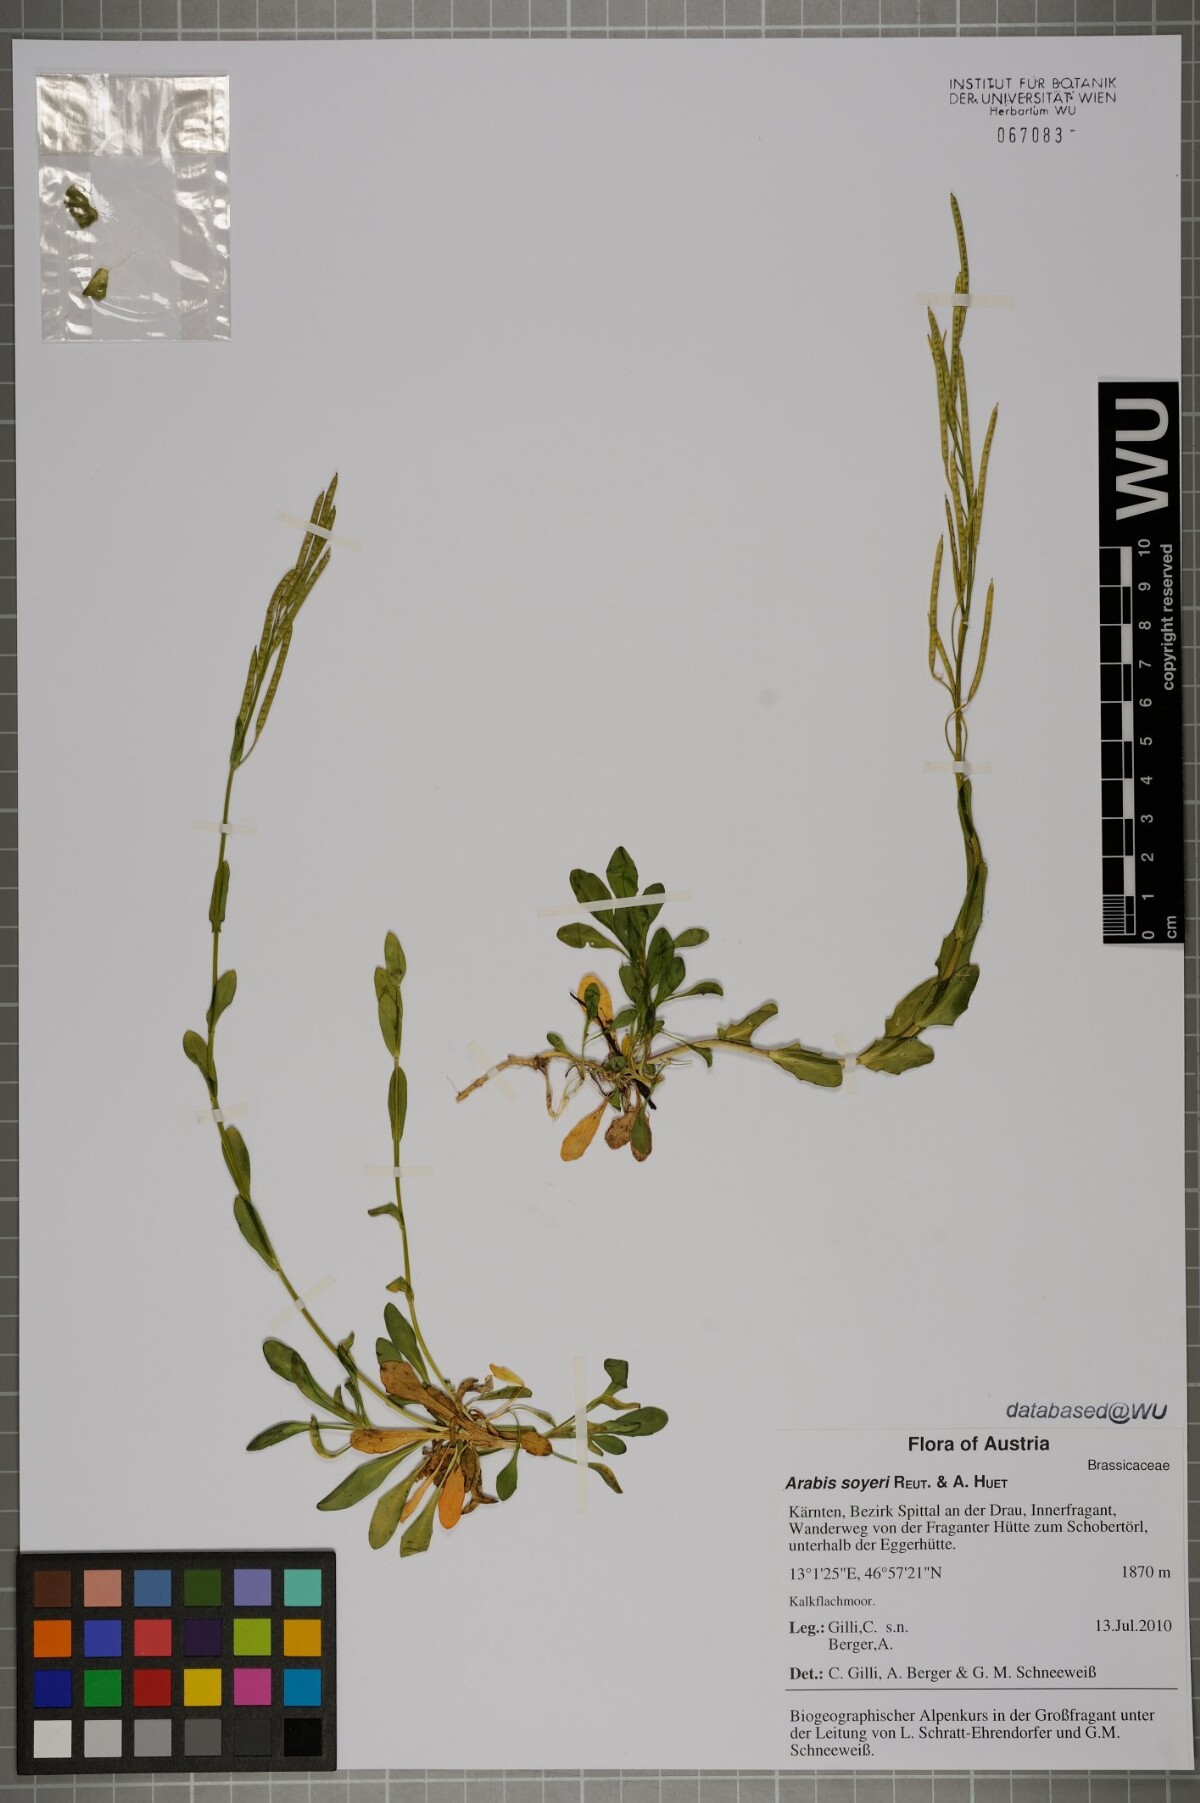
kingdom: Plantae
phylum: Tracheophyta
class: Magnoliopsida
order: Brassicales
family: Brassicaceae
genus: Arabis
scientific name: Arabis soyeri
